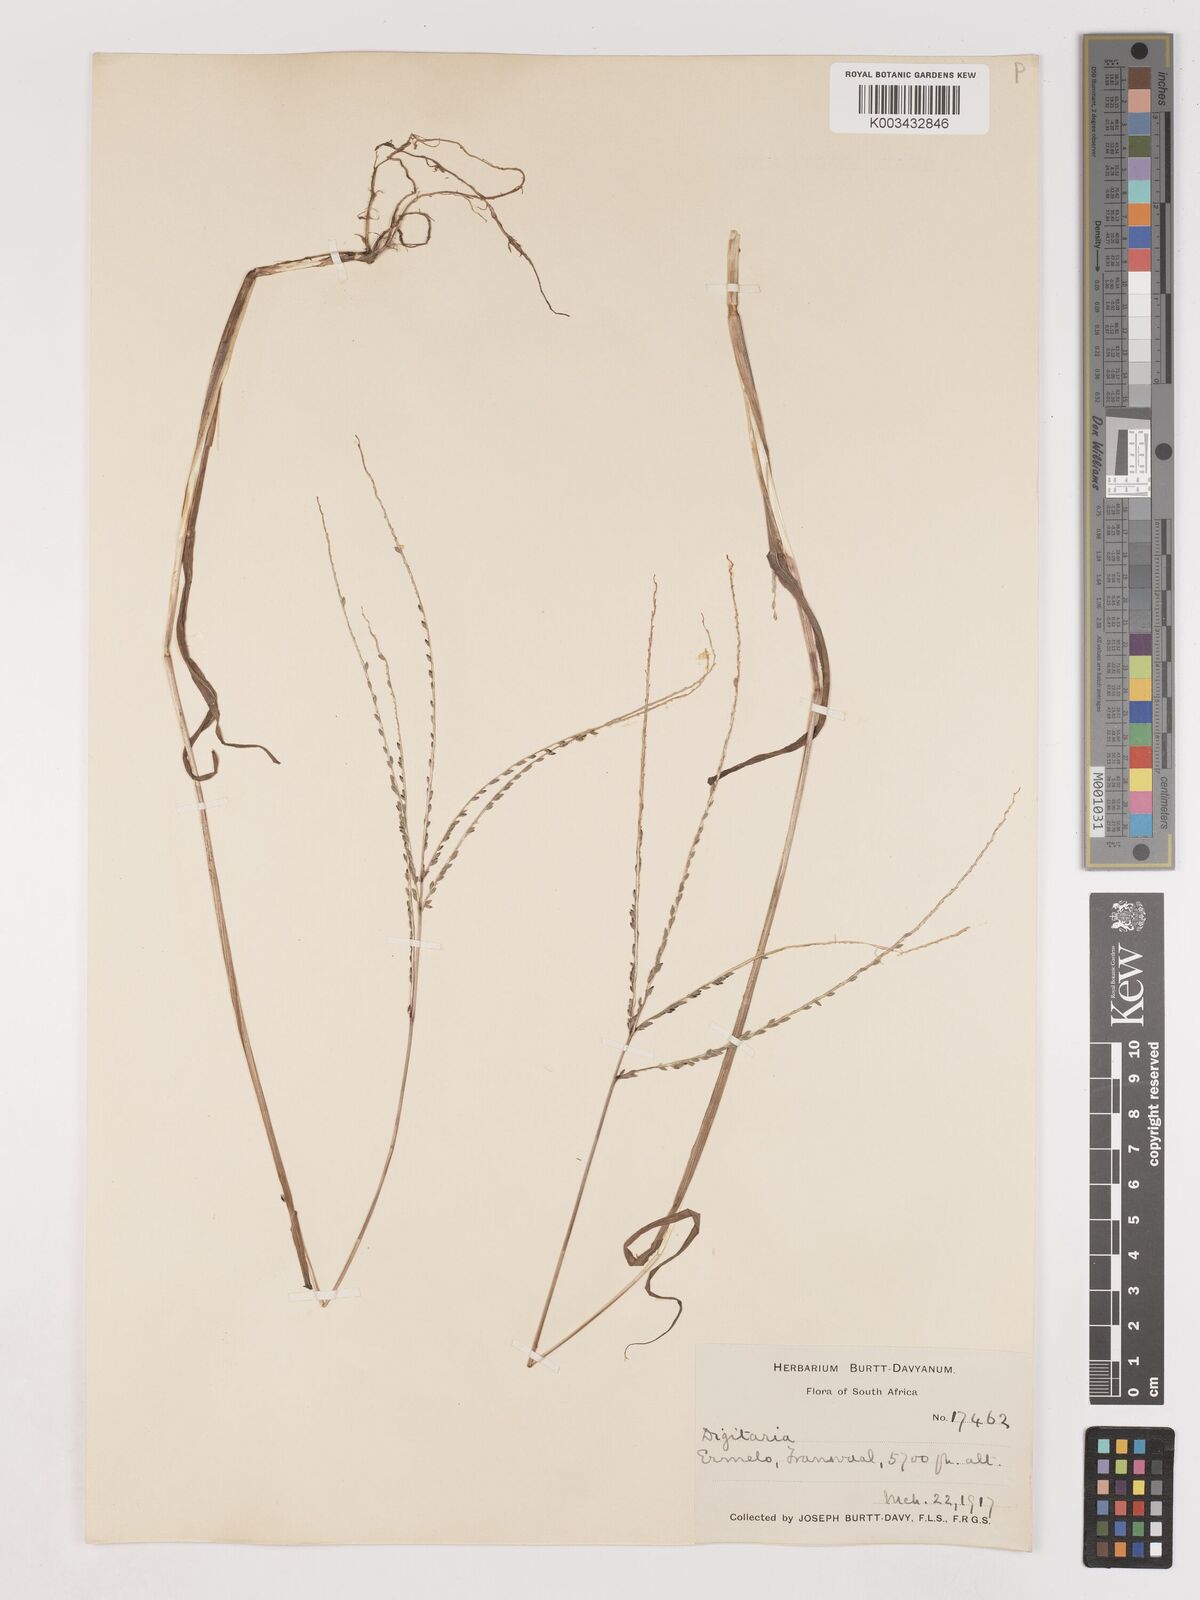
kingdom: Plantae
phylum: Tracheophyta
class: Liliopsida
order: Poales
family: Poaceae
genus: Digitaria
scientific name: Digitaria ternata
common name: Blackseed crabgrass
